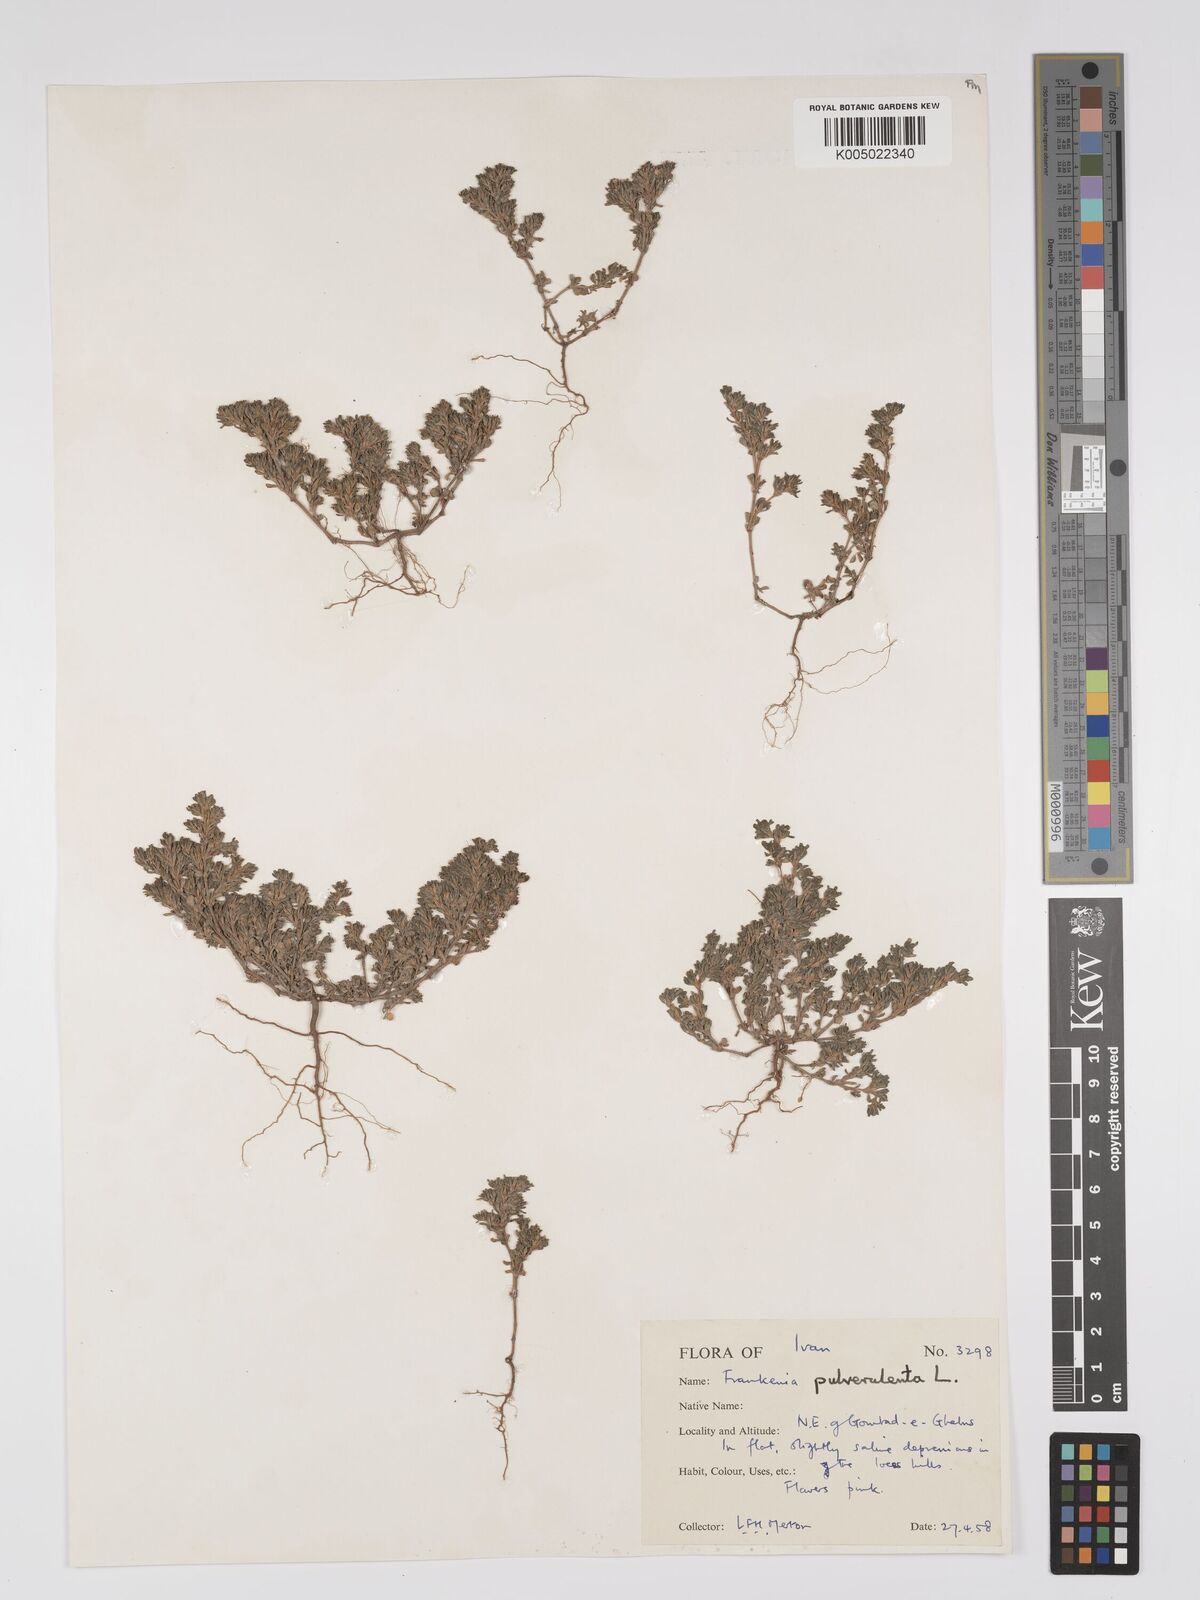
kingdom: Plantae
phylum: Tracheophyta
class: Magnoliopsida
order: Caryophyllales
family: Frankeniaceae
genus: Frankenia
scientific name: Frankenia pulverulenta
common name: European seaheath
